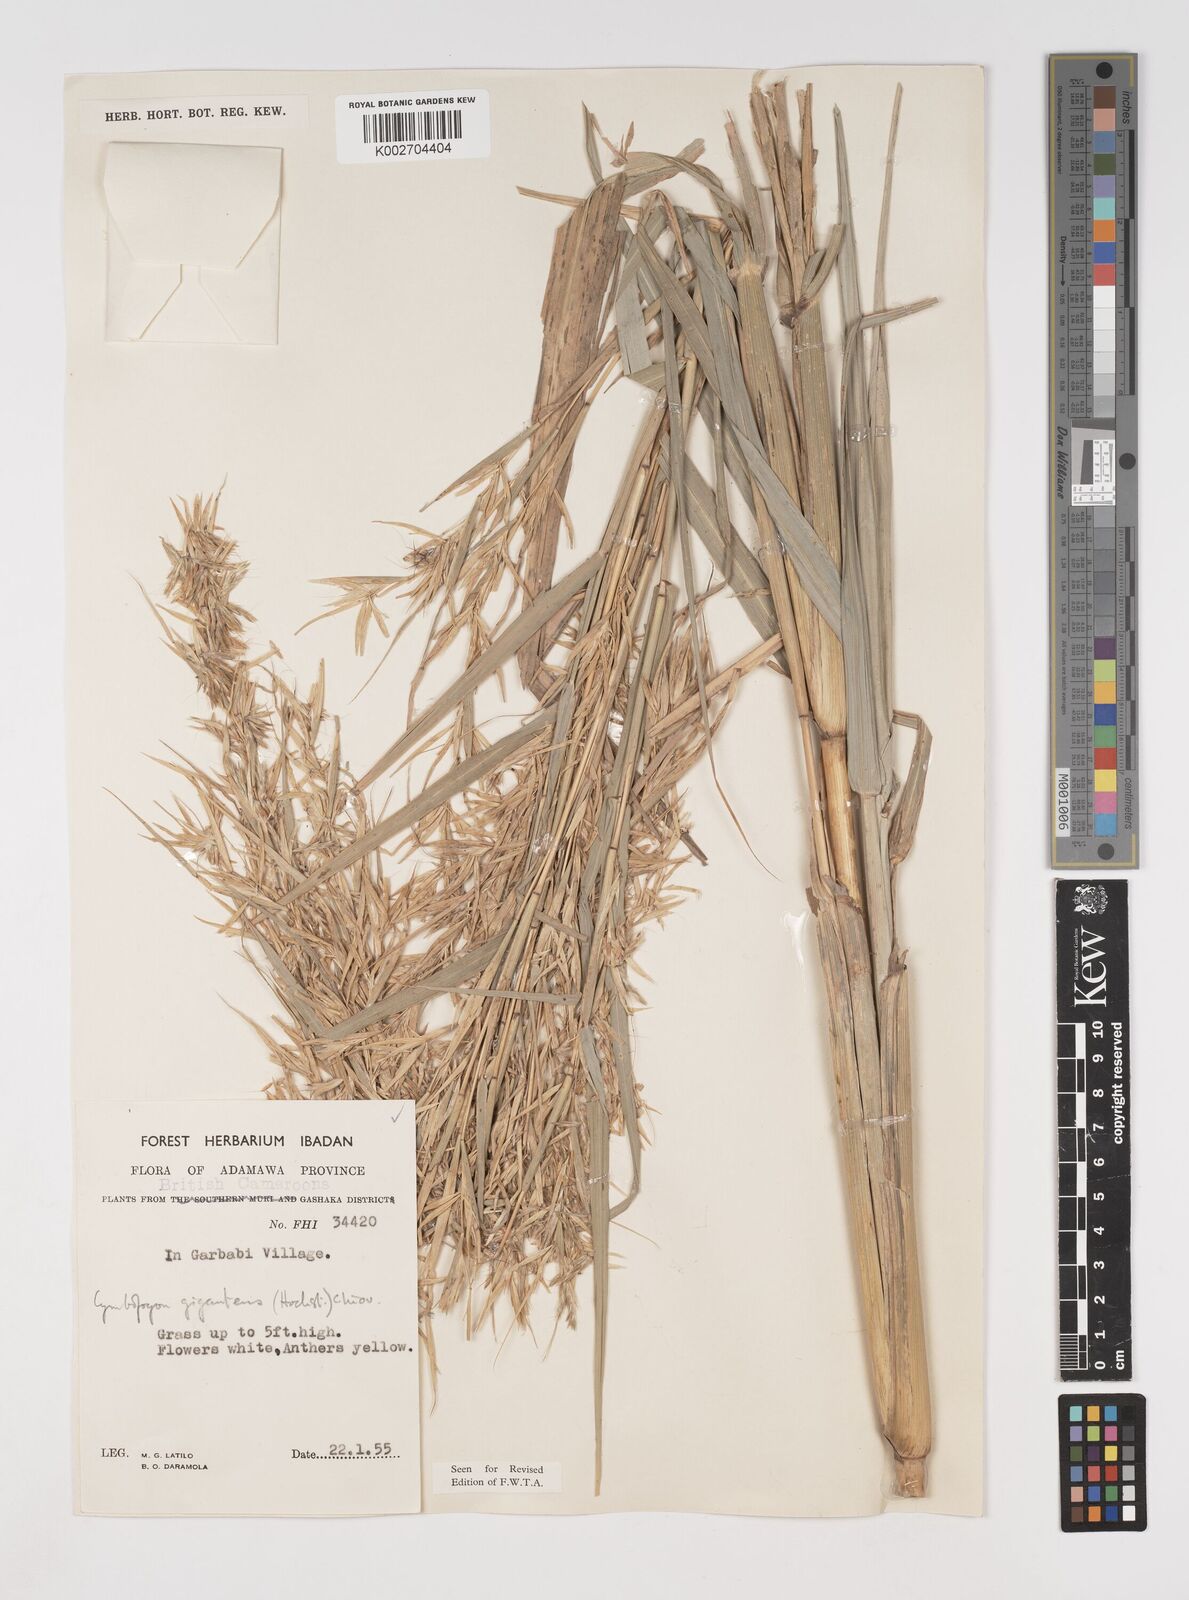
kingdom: Plantae
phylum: Tracheophyta
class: Liliopsida
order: Poales
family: Poaceae
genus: Cymbopogon
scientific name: Cymbopogon giganteus
